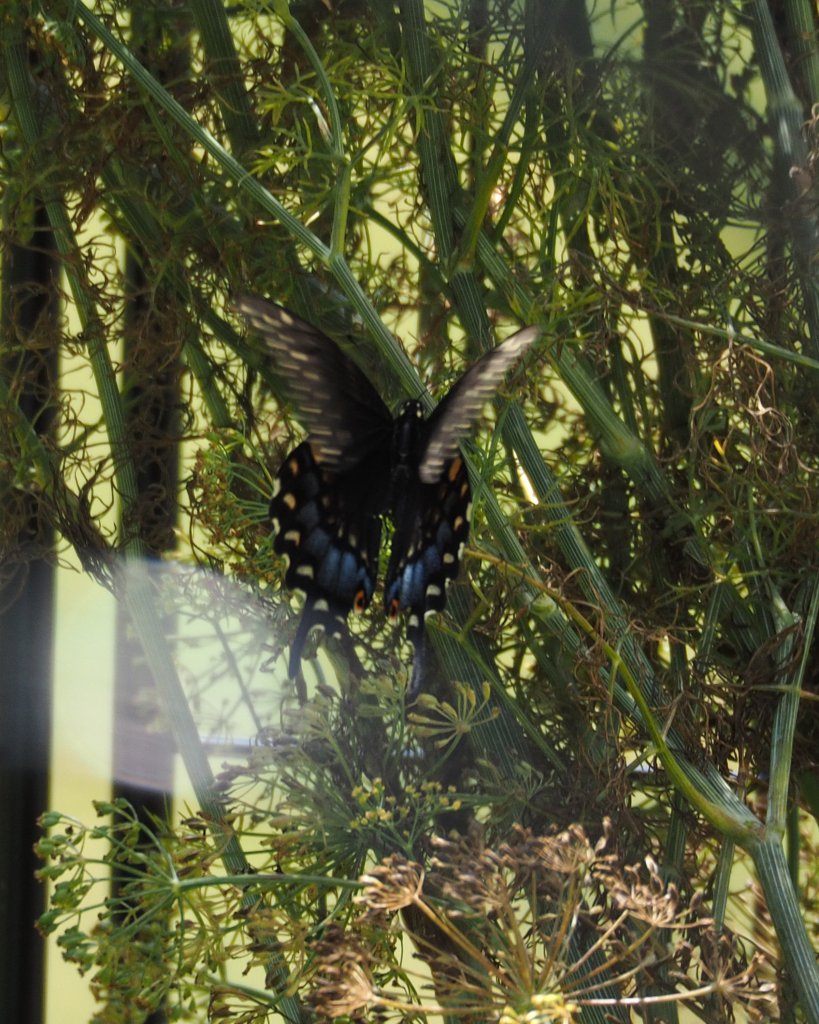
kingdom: Animalia
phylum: Arthropoda
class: Insecta
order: Lepidoptera
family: Papilionidae
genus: Papilio
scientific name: Papilio polyxenes
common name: Black Swallowtail
